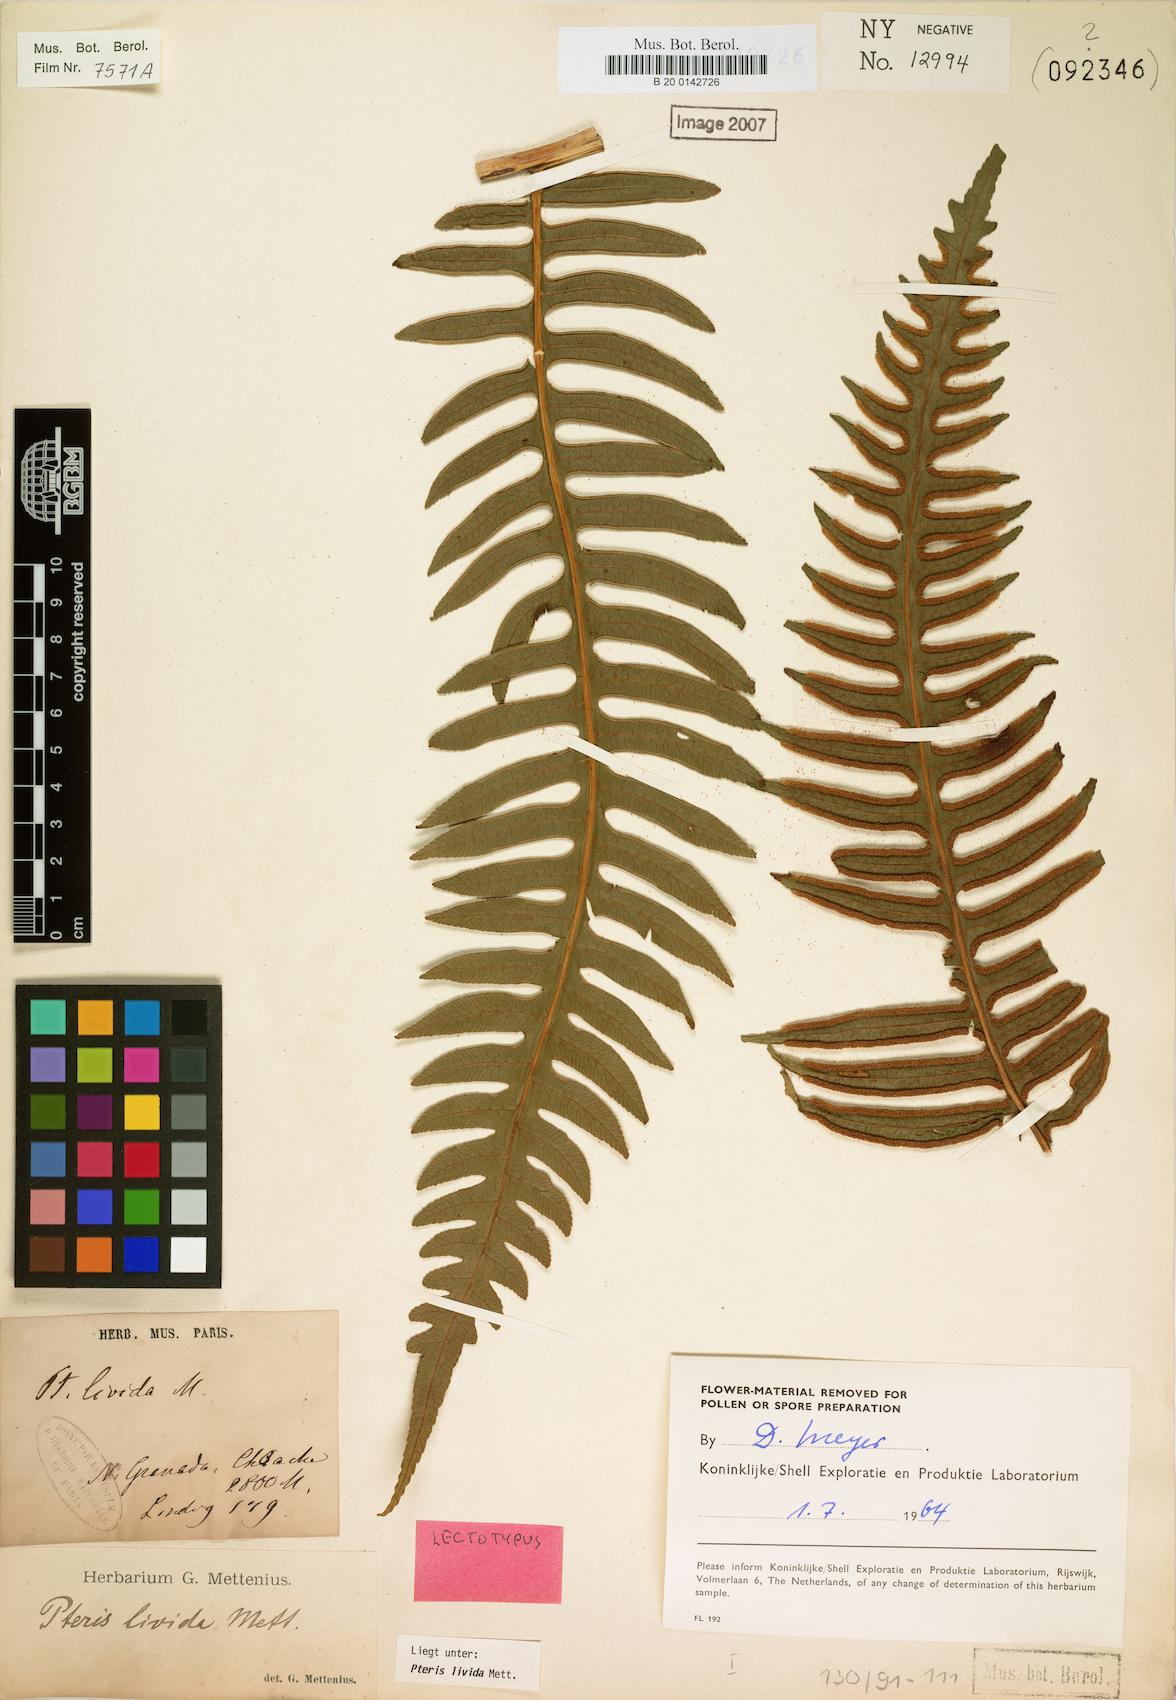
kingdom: Plantae
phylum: Tracheophyta
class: Polypodiopsida
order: Polypodiales
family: Pteridaceae
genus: Pteris
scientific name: Pteris livida
